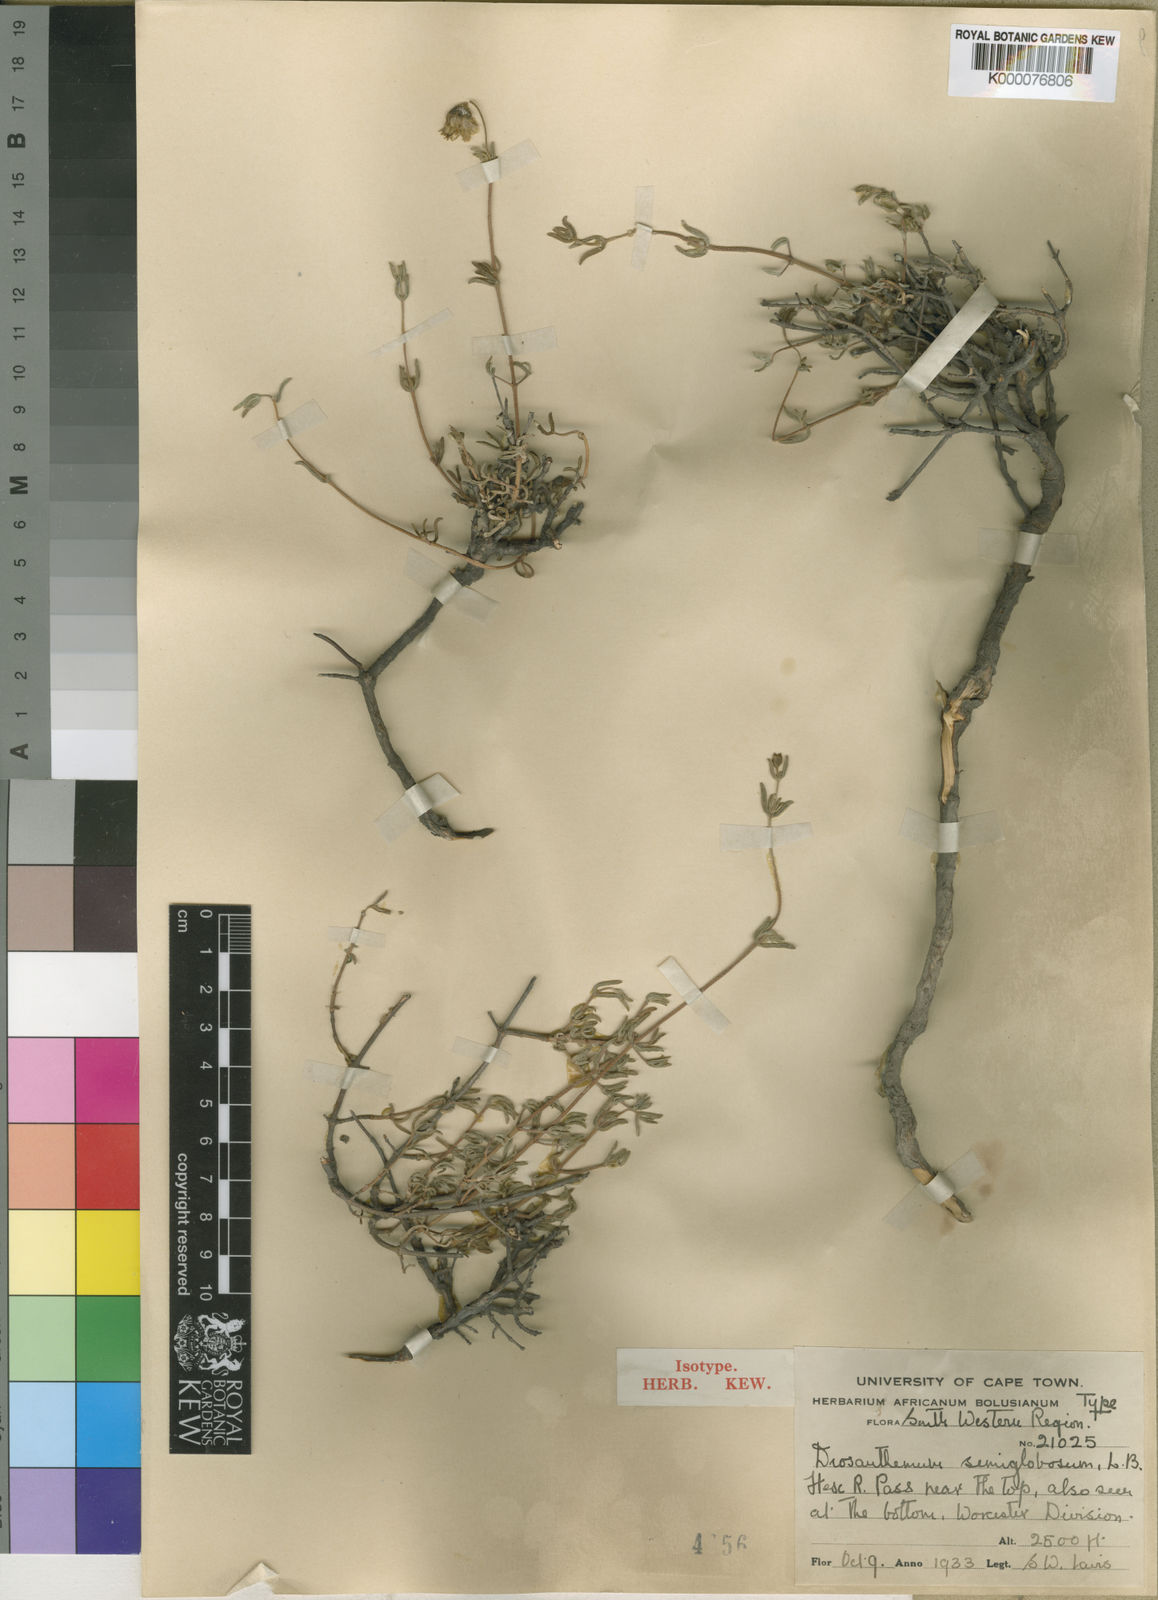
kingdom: Plantae
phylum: Tracheophyta
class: Magnoliopsida
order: Caryophyllales
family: Aizoaceae
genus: Drosanthemum
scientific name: Drosanthemum semiglobosum
